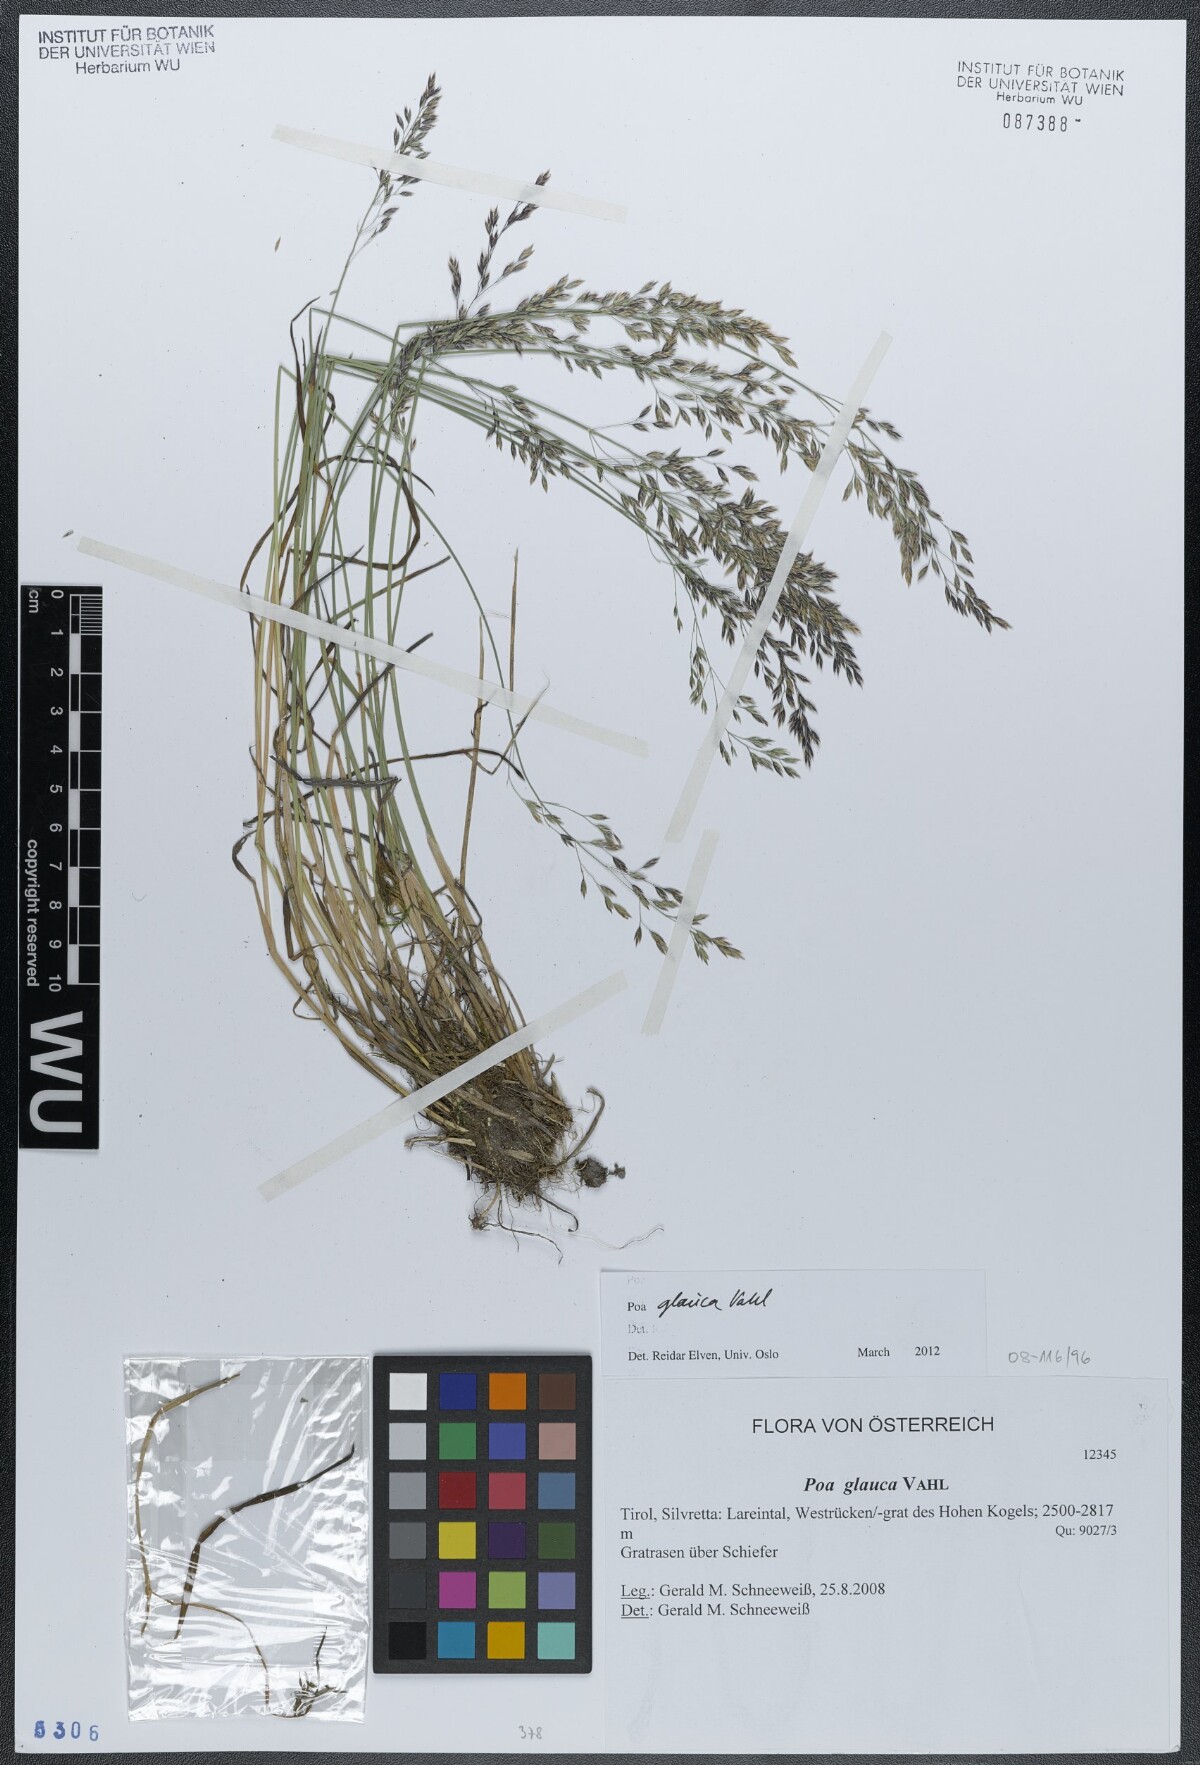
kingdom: Plantae
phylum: Tracheophyta
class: Liliopsida
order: Poales
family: Poaceae
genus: Poa
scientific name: Poa glauca
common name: Glaucous bluegrass
